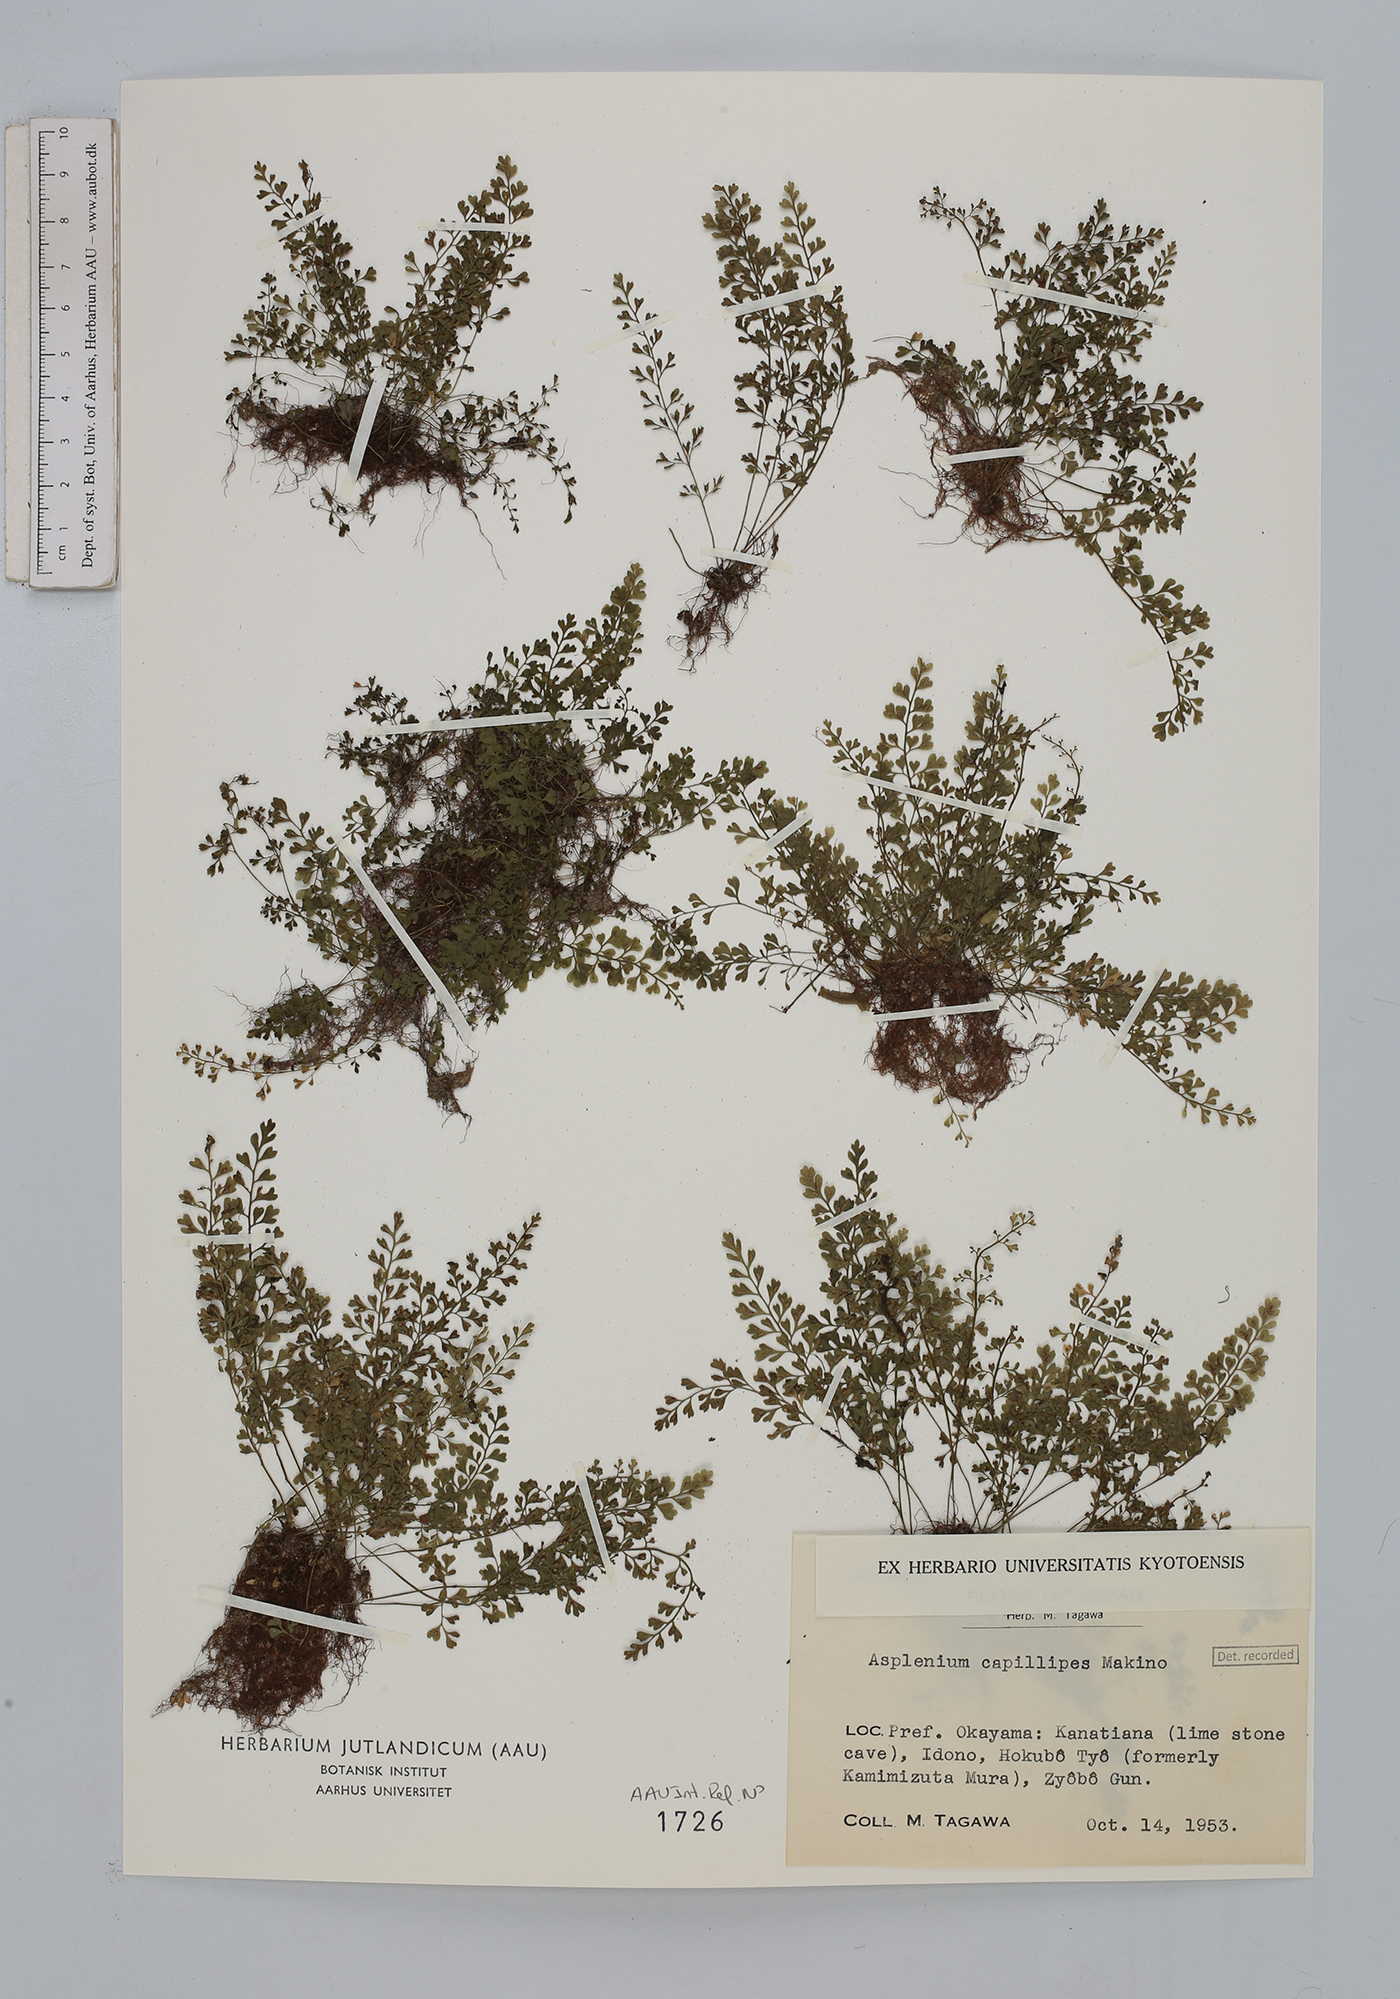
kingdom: Plantae
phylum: Tracheophyta
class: Polypodiopsida
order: Polypodiales
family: Aspleniaceae
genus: Asplenium
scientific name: Asplenium capillipes
